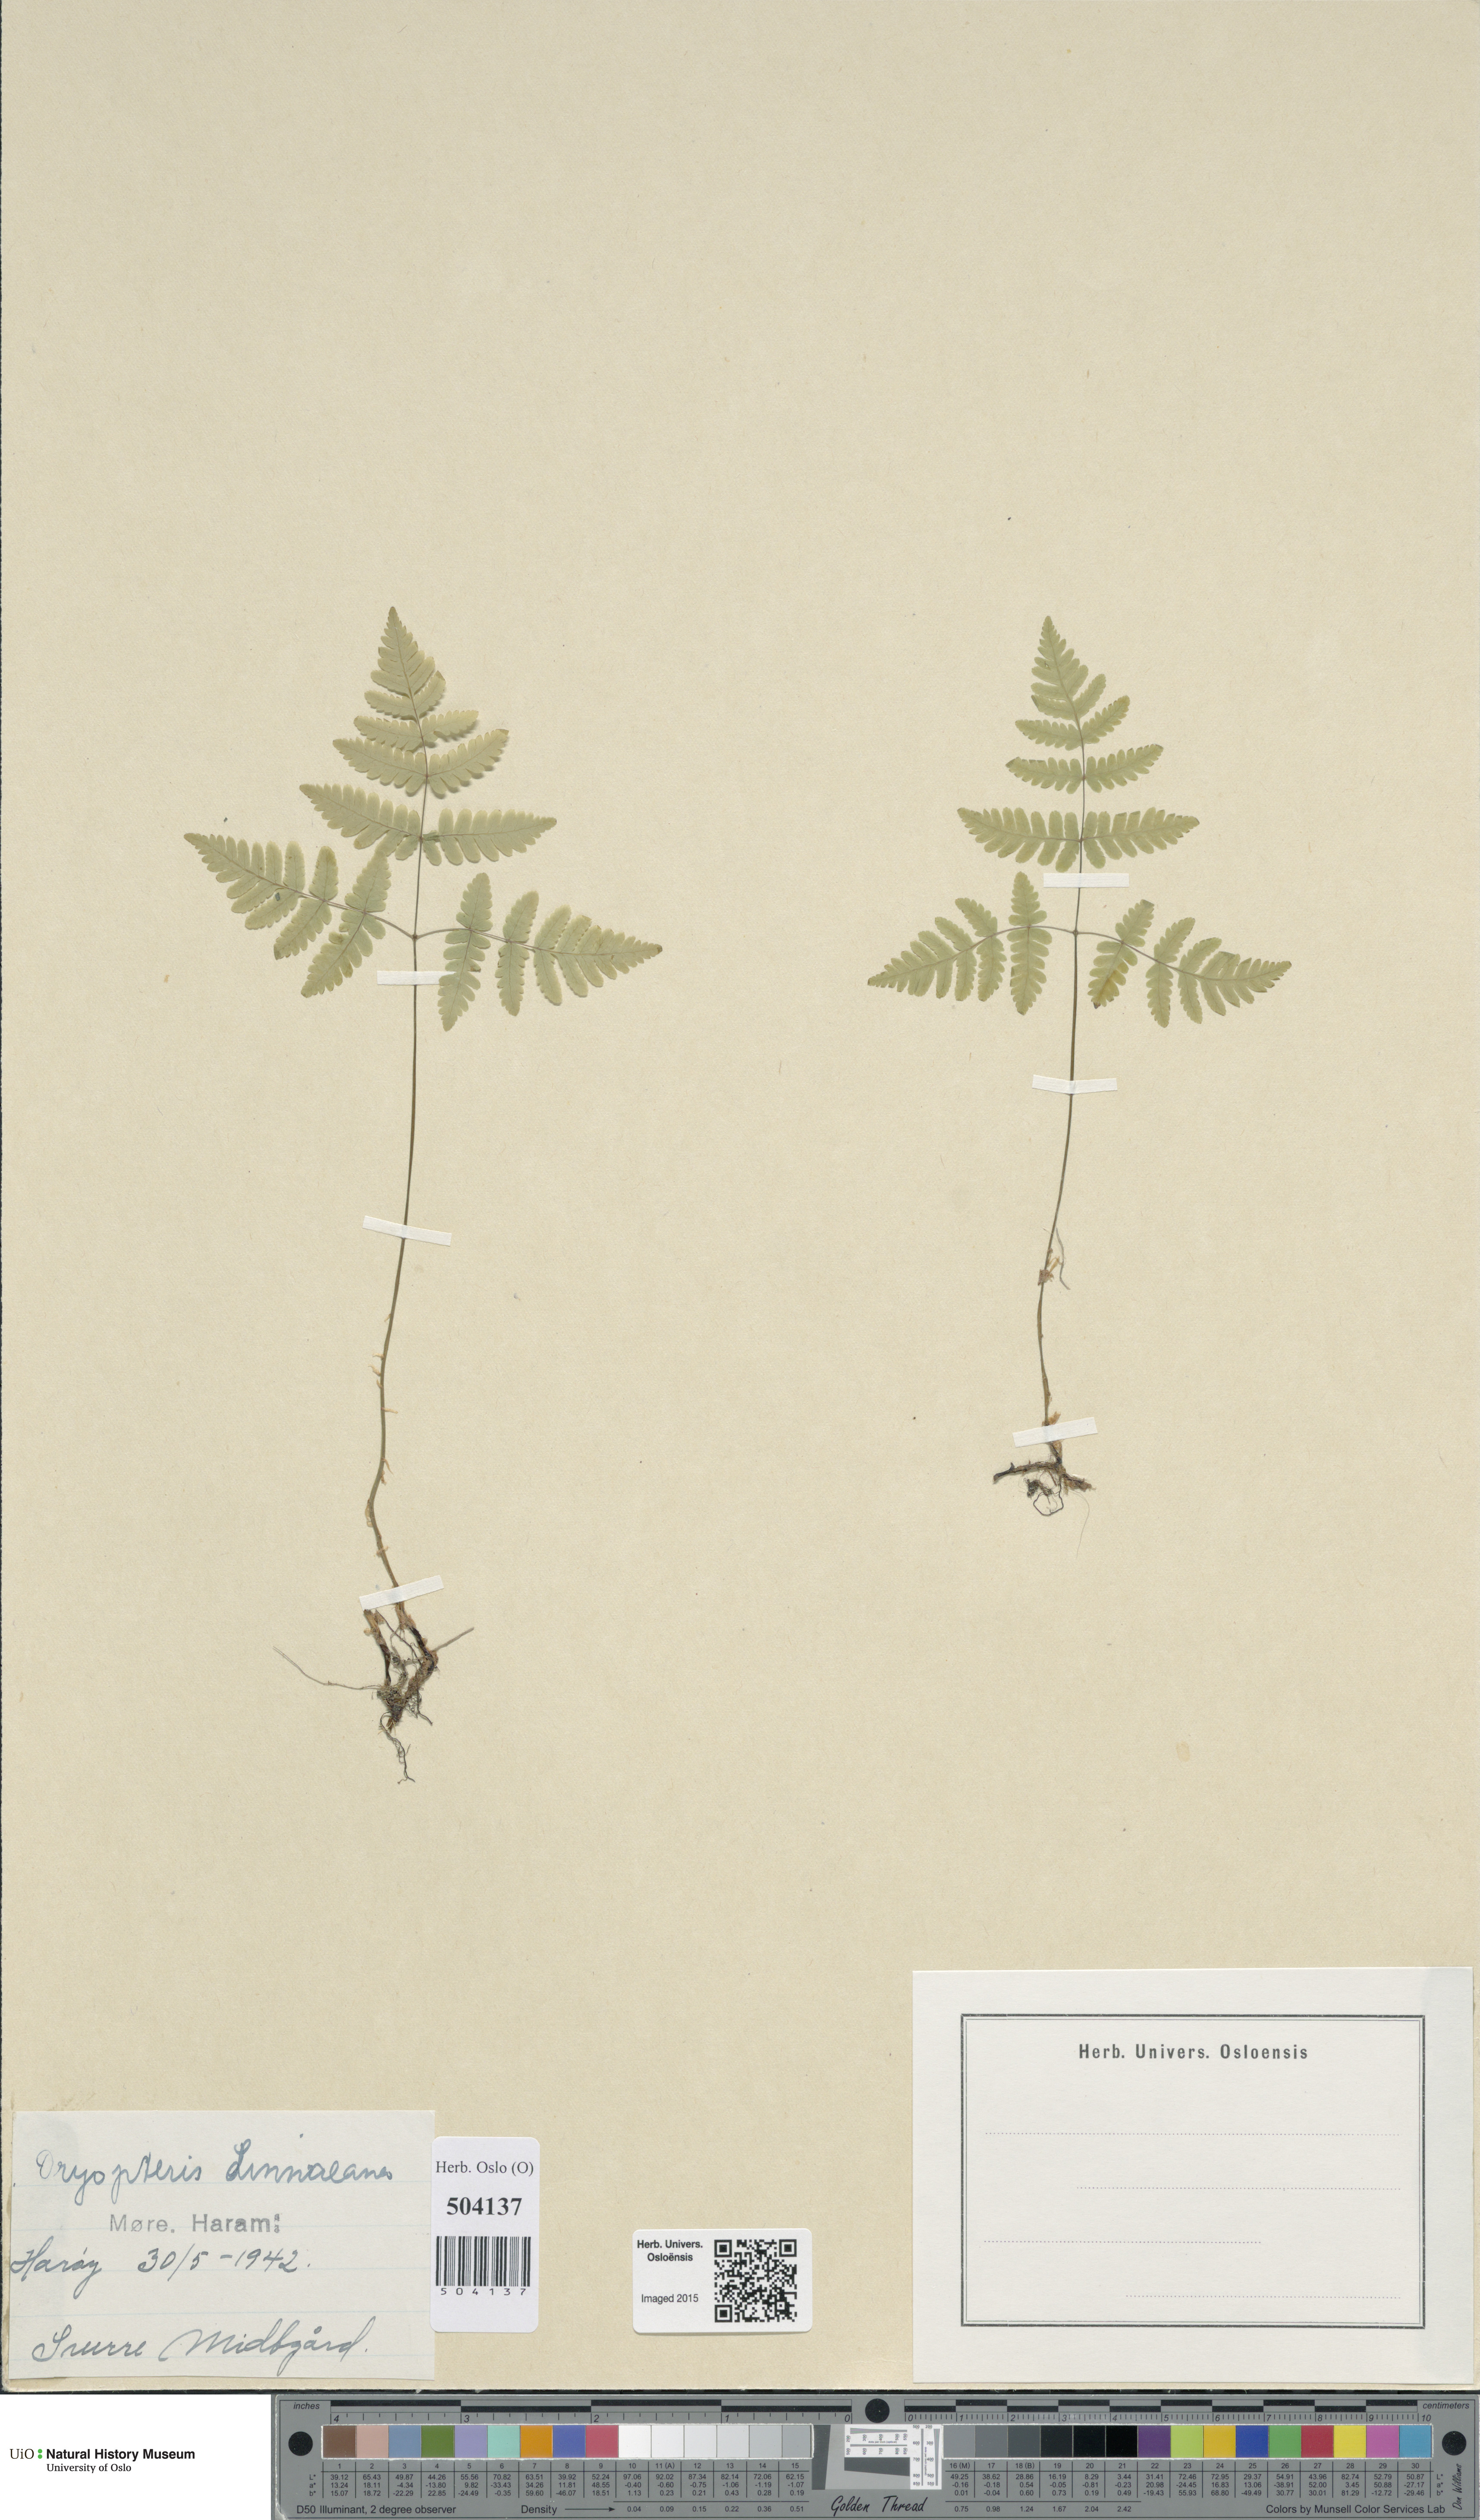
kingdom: Plantae
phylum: Tracheophyta
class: Polypodiopsida
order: Polypodiales
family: Cystopteridaceae
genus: Gymnocarpium
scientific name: Gymnocarpium dryopteris
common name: Oak fern
